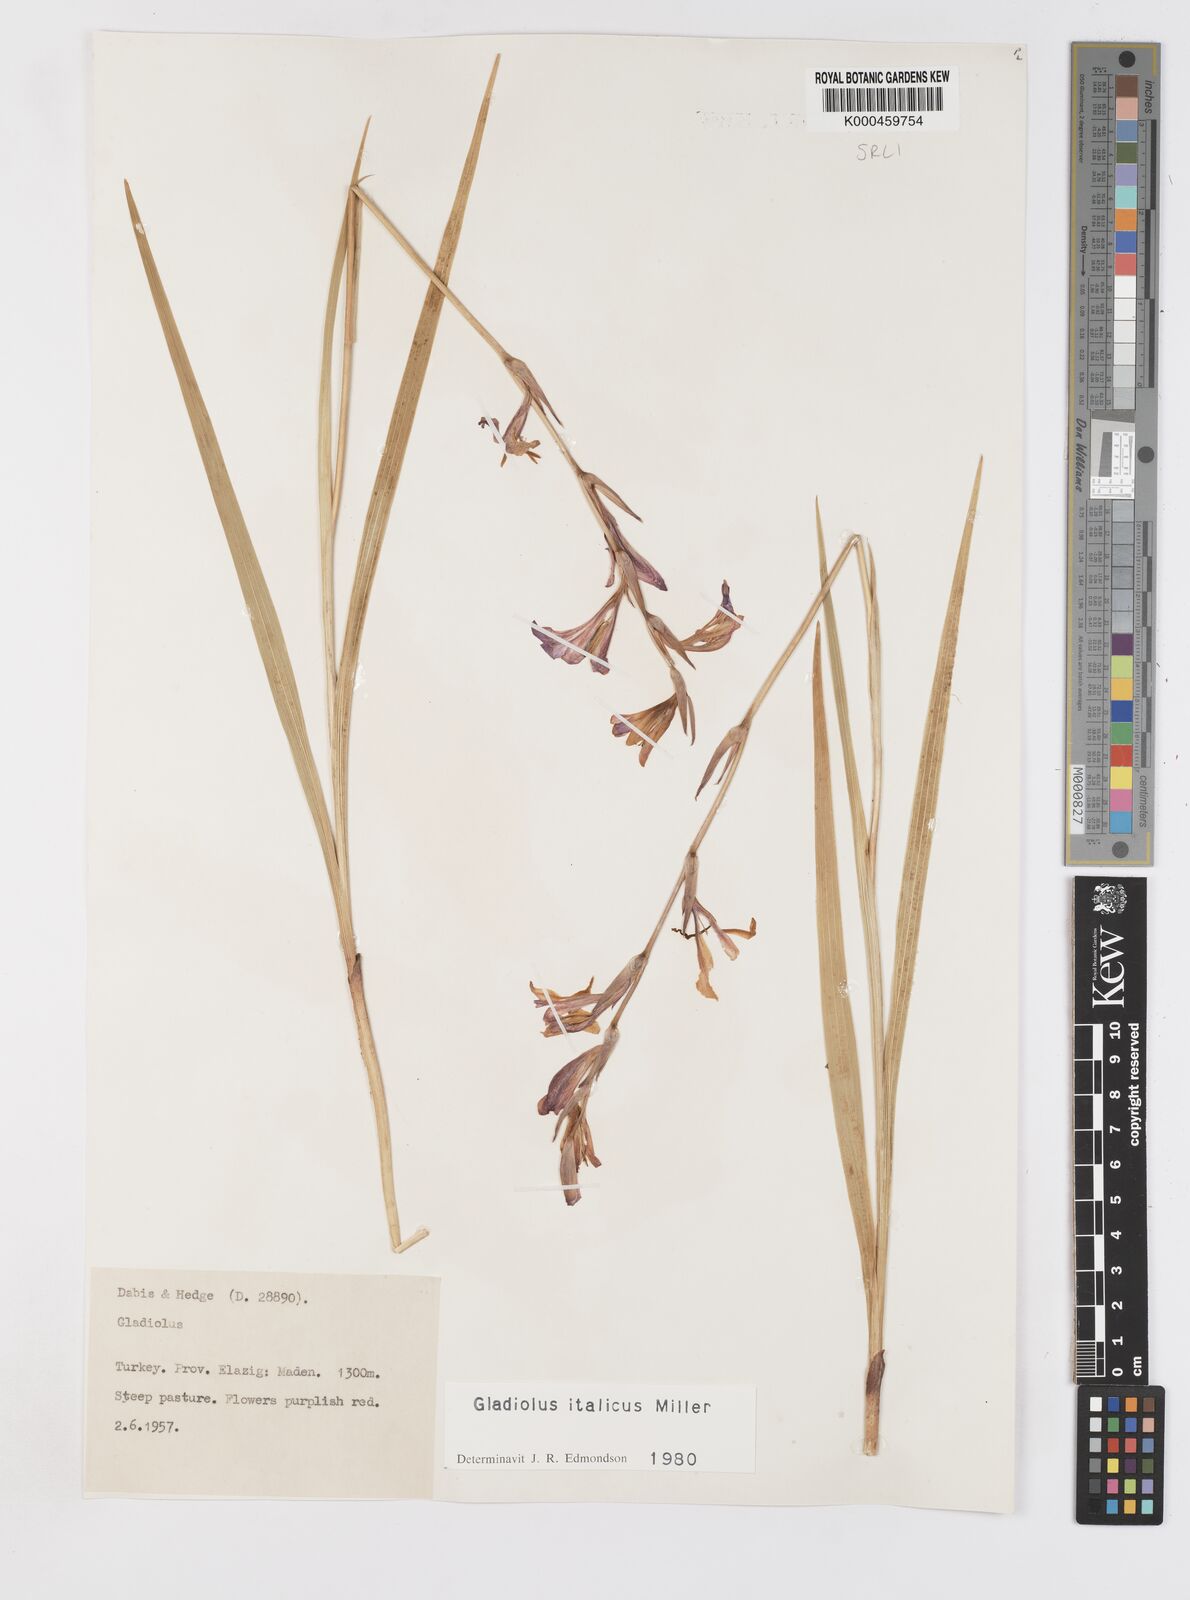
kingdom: Plantae
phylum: Tracheophyta
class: Liliopsida
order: Asparagales
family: Iridaceae
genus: Gladiolus
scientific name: Gladiolus italicus
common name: Field gladiolus
